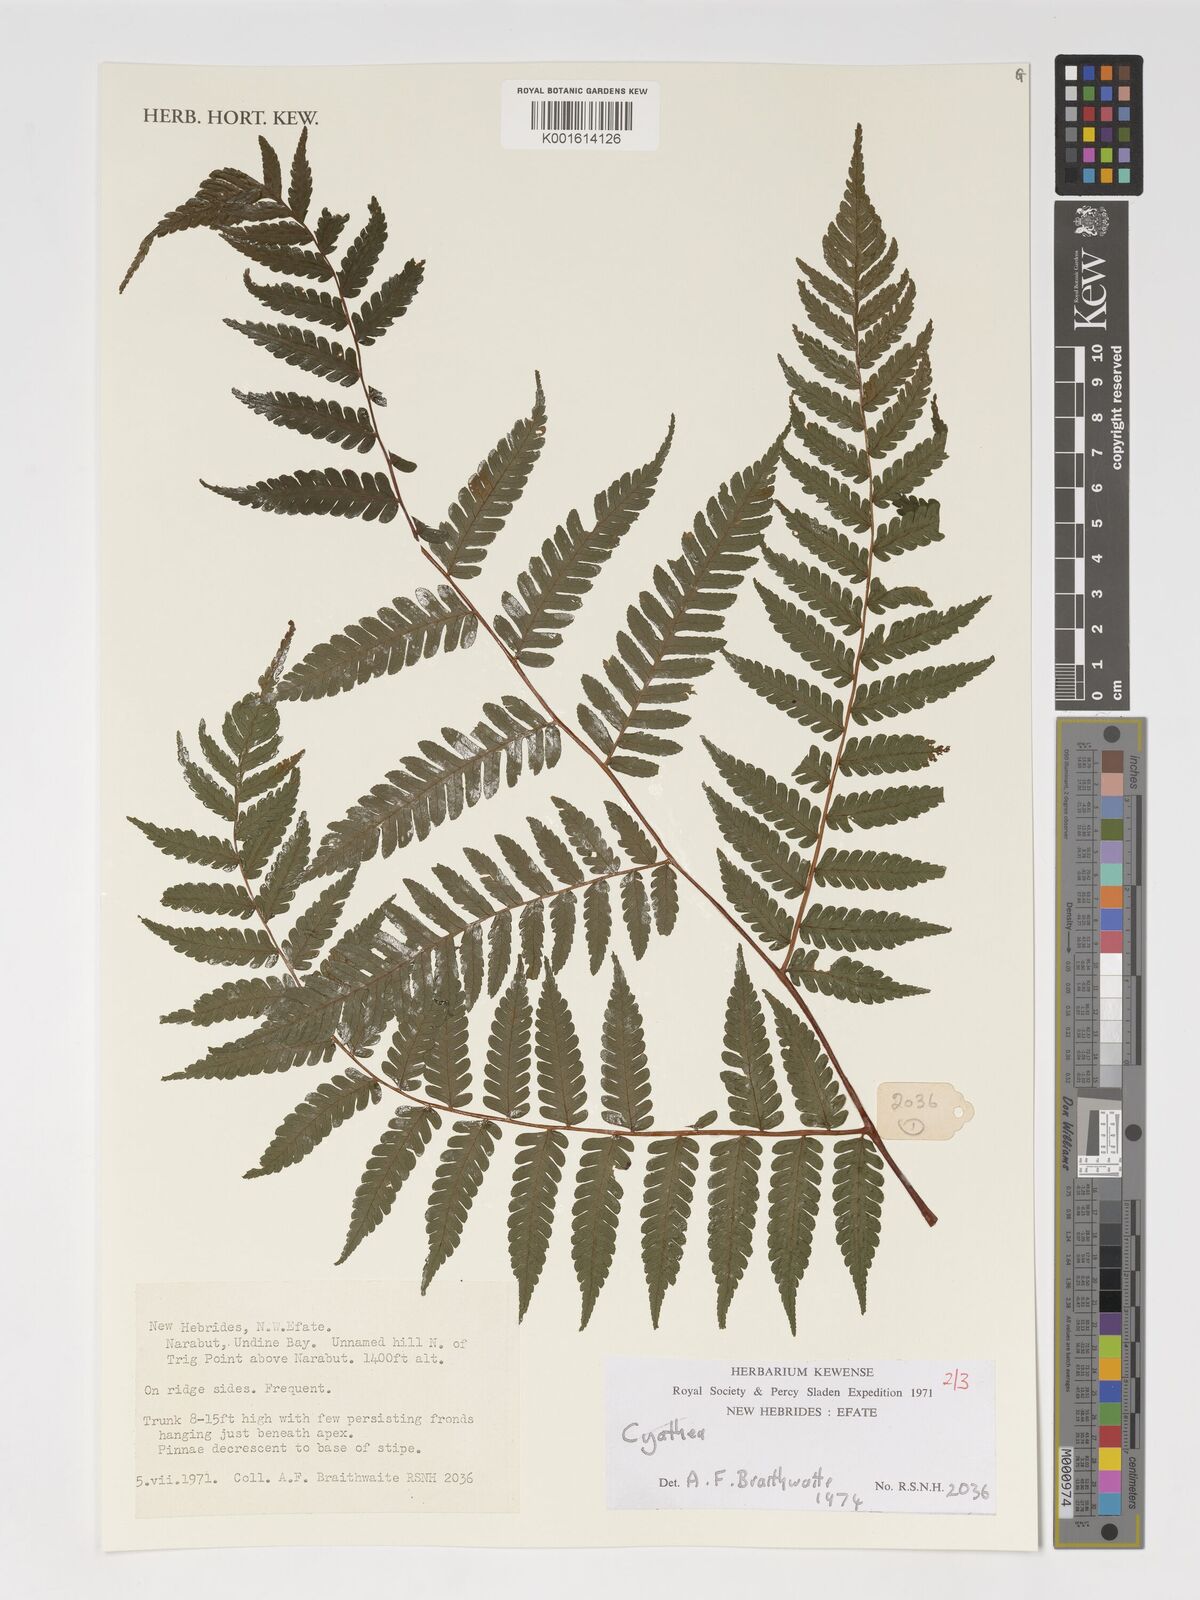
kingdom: Plantae
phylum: Tracheophyta
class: Polypodiopsida
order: Cyatheales
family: Cyatheaceae
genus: Cyathea
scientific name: Cyathea
